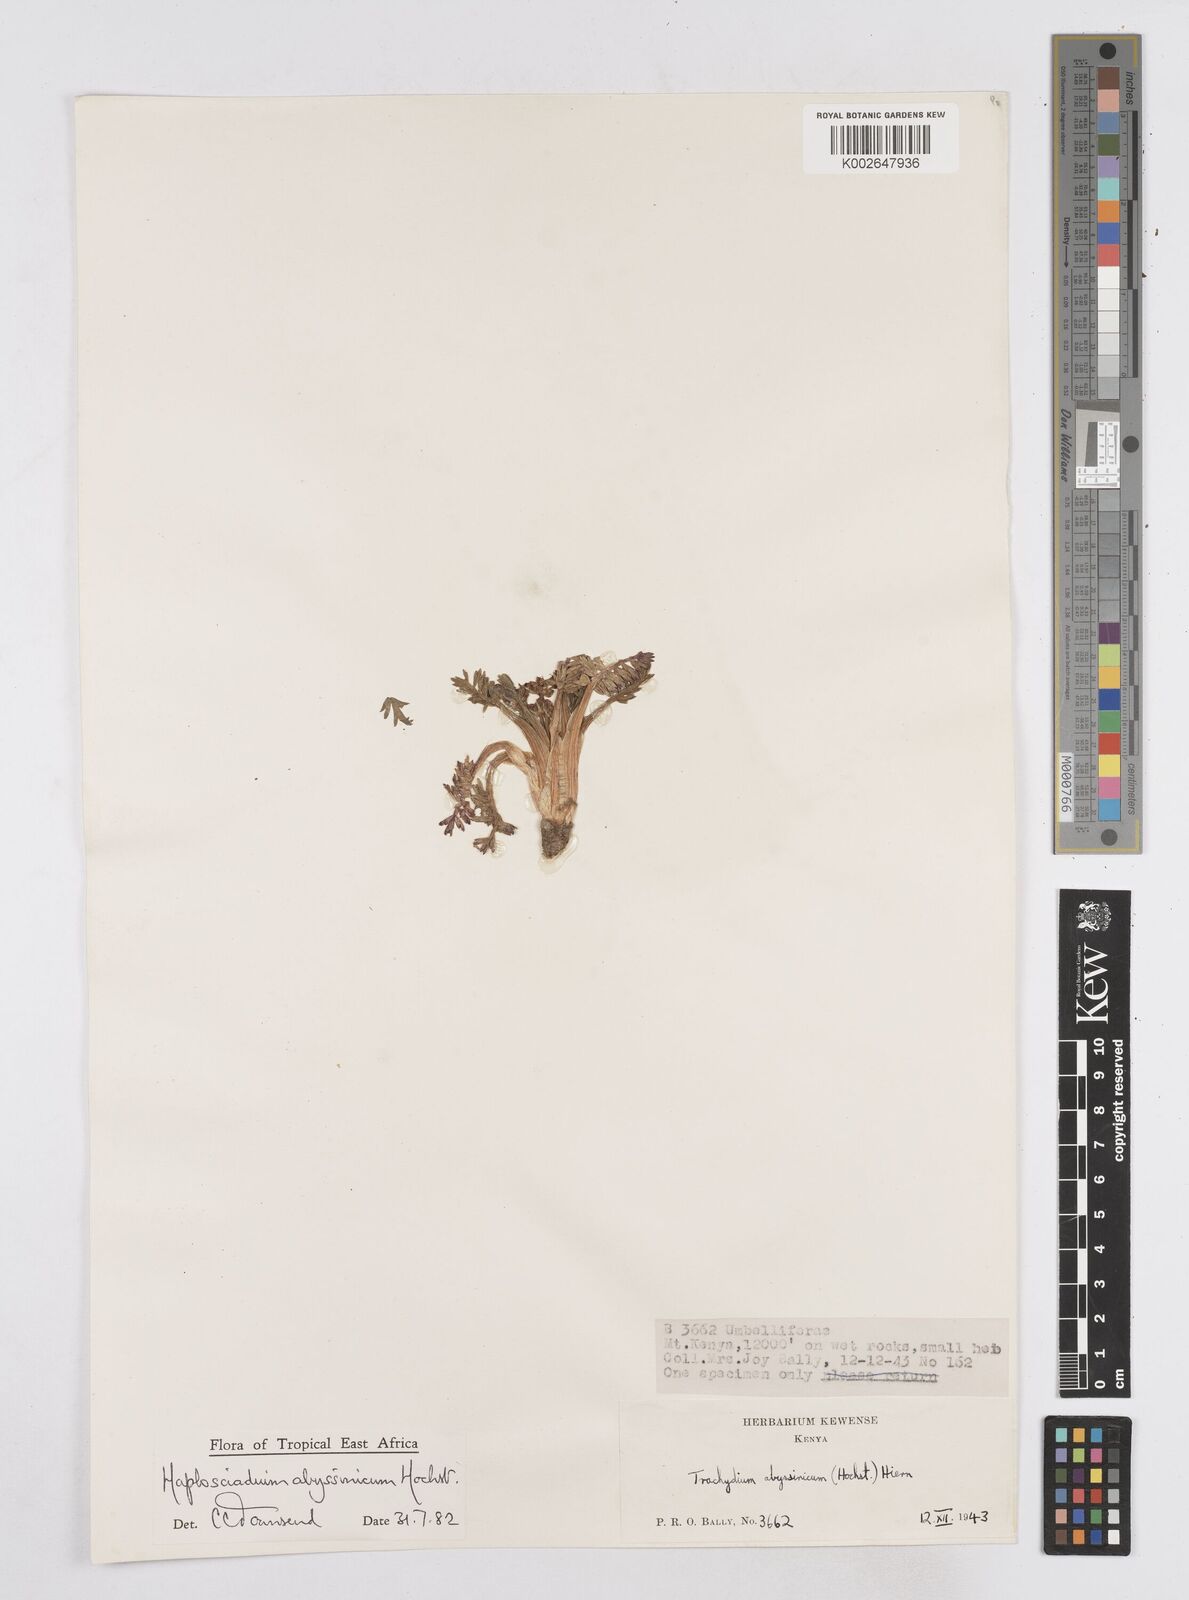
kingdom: Plantae
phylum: Tracheophyta
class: Magnoliopsida
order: Apiales
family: Apiaceae
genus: Haplosciadium
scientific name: Haplosciadium abyssinicum
